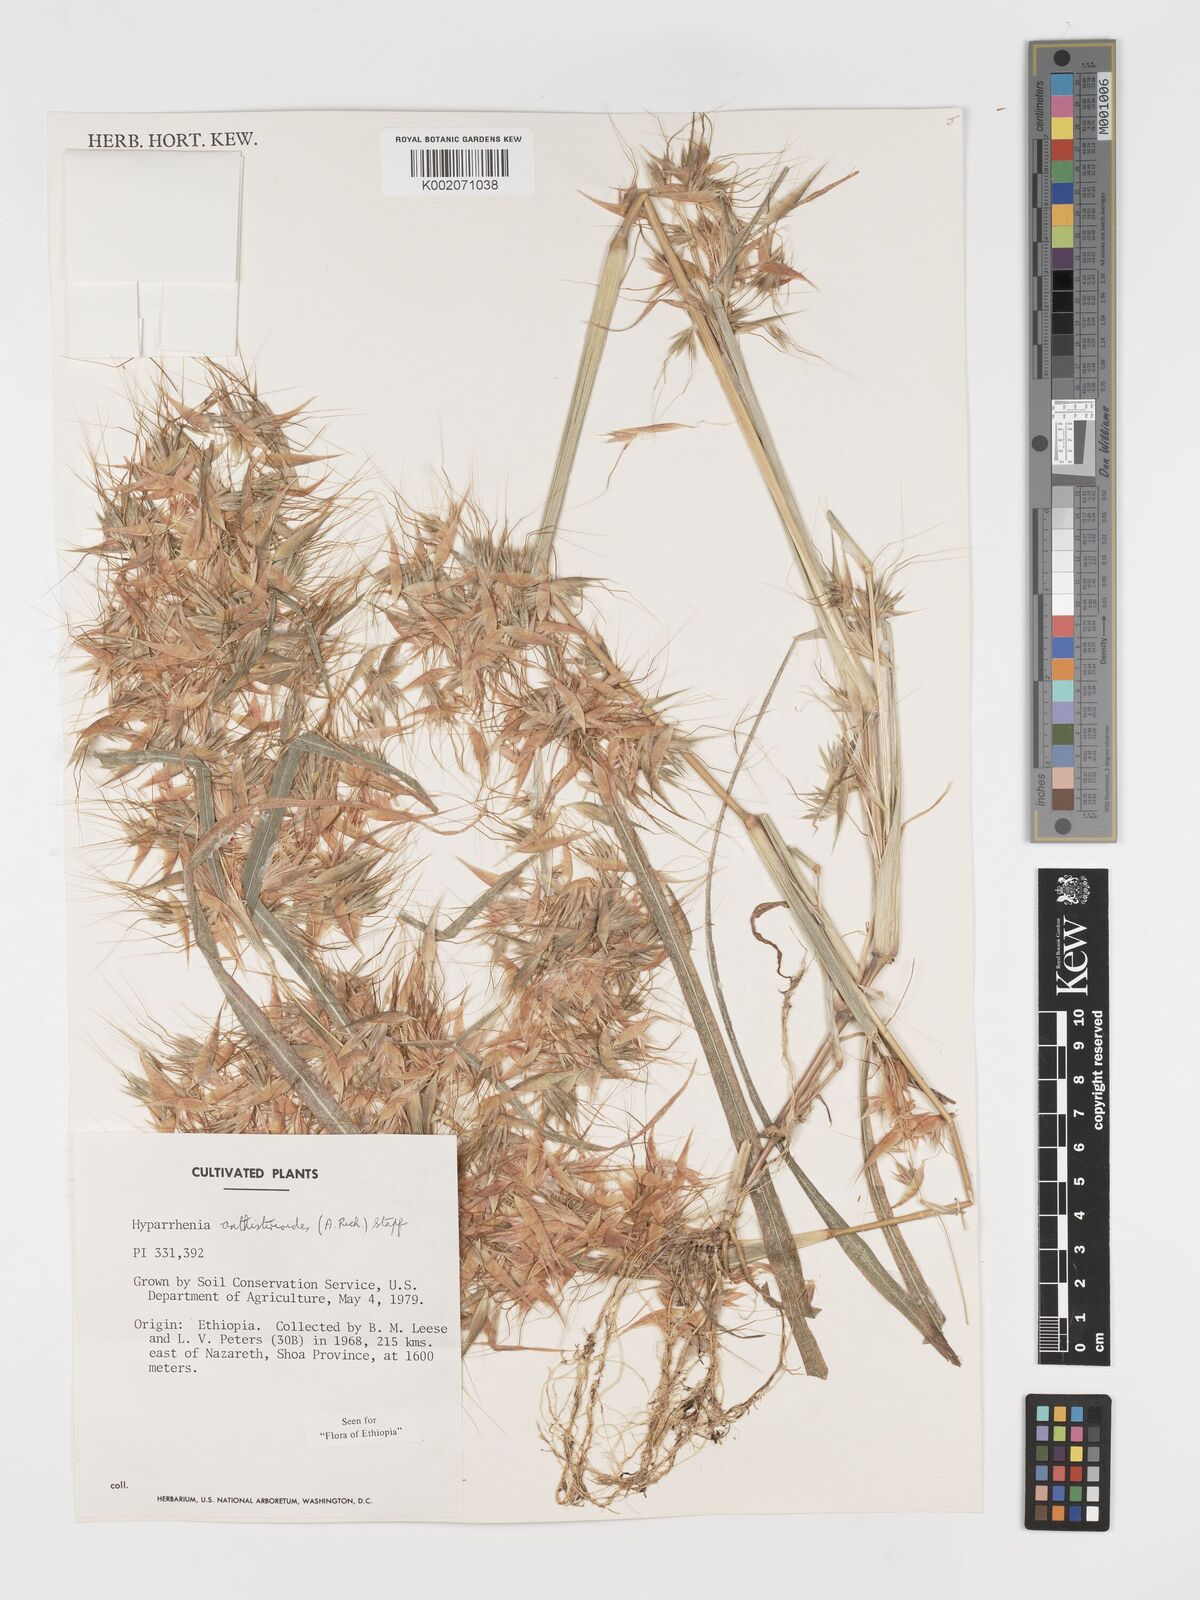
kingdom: Plantae
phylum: Tracheophyta
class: Liliopsida
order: Poales
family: Poaceae
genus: Hyparrhenia
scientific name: Hyparrhenia anthistirioides
